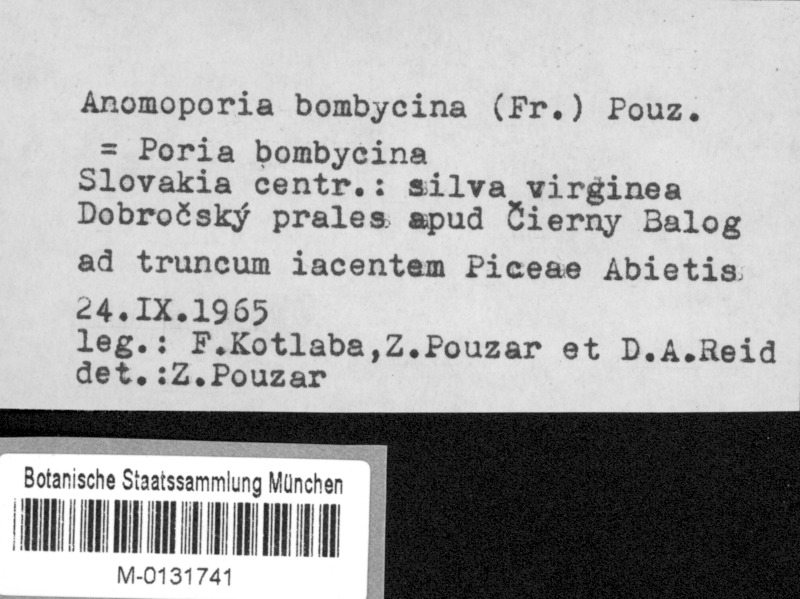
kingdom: Fungi
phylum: Basidiomycota
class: Agaricomycetes
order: Amylocorticiales
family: Amylocorticiaceae
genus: Anomoporia
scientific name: Anomoporia bombycina
